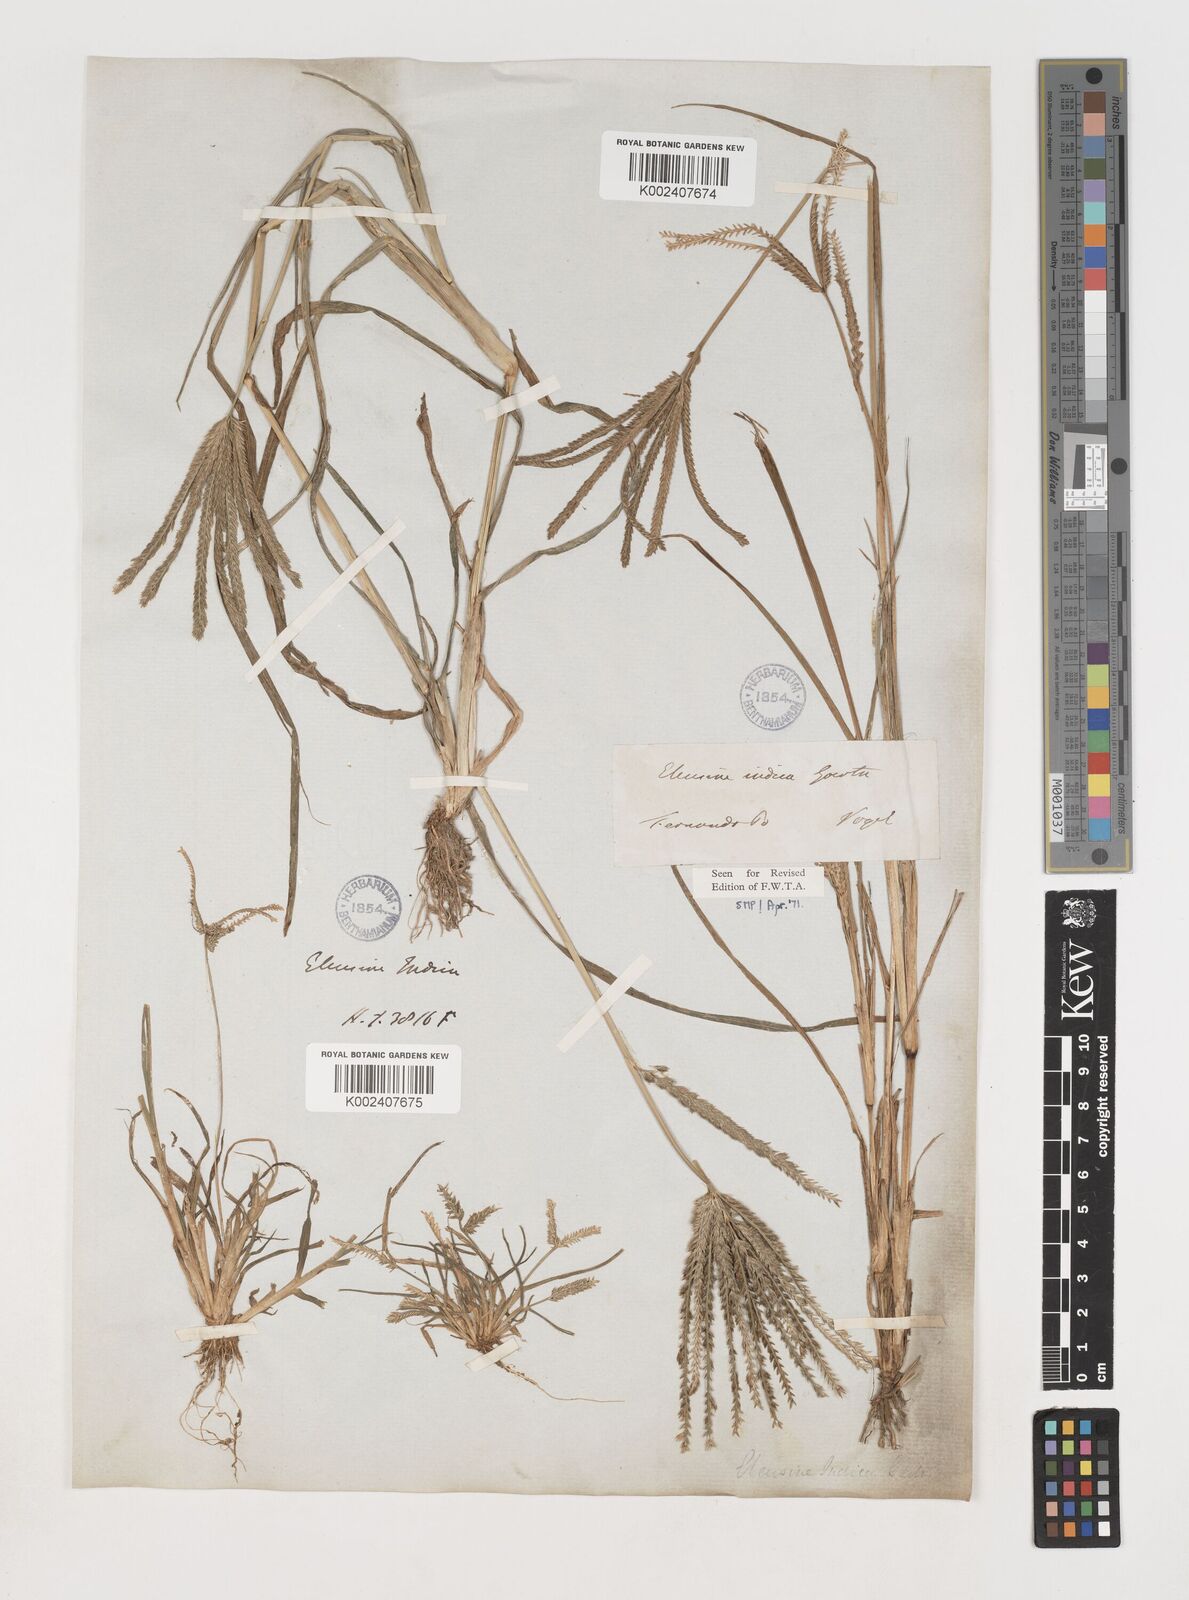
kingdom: Plantae
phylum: Tracheophyta
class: Liliopsida
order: Poales
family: Poaceae
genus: Eleusine
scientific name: Eleusine indica
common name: Yard-grass
